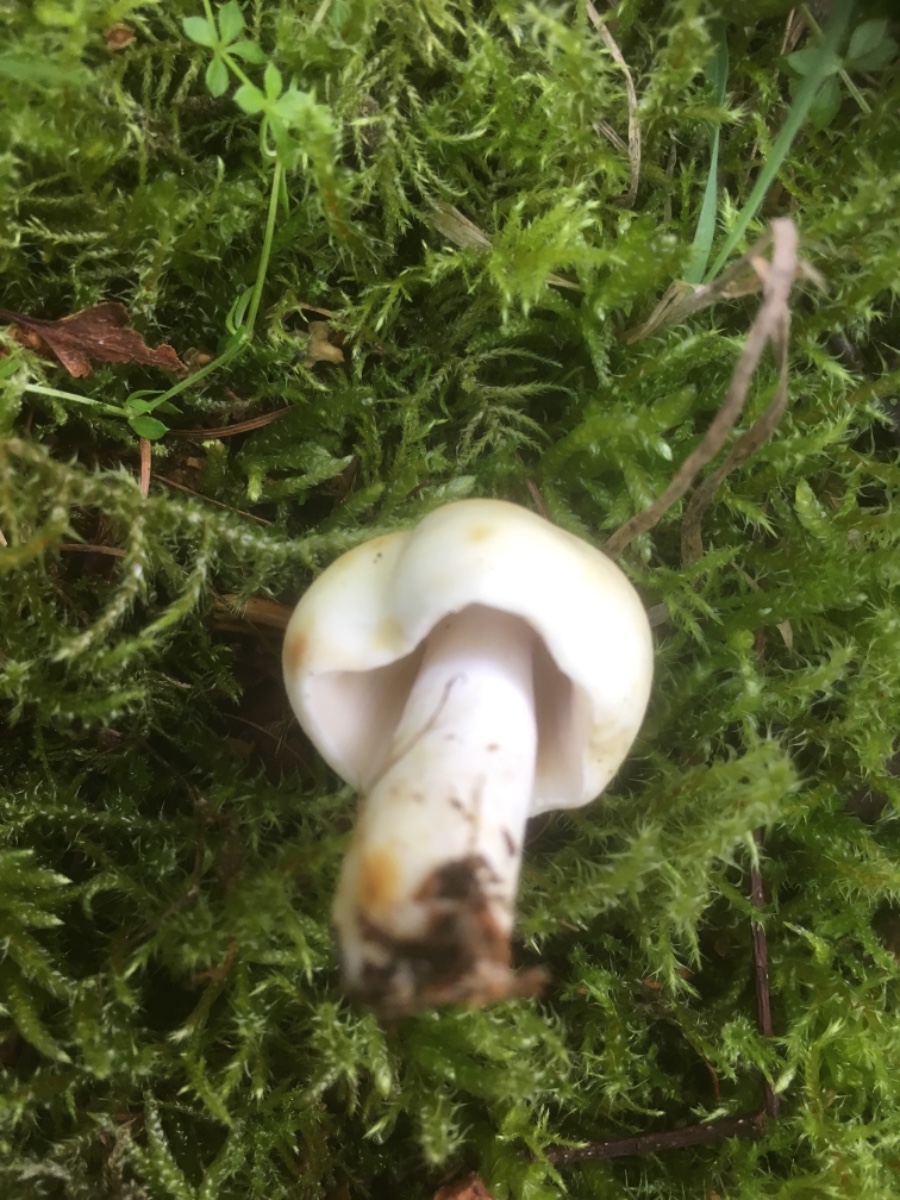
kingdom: Fungi
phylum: Basidiomycota
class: Agaricomycetes
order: Russulales
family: Russulaceae
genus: Russula
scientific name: Russula
